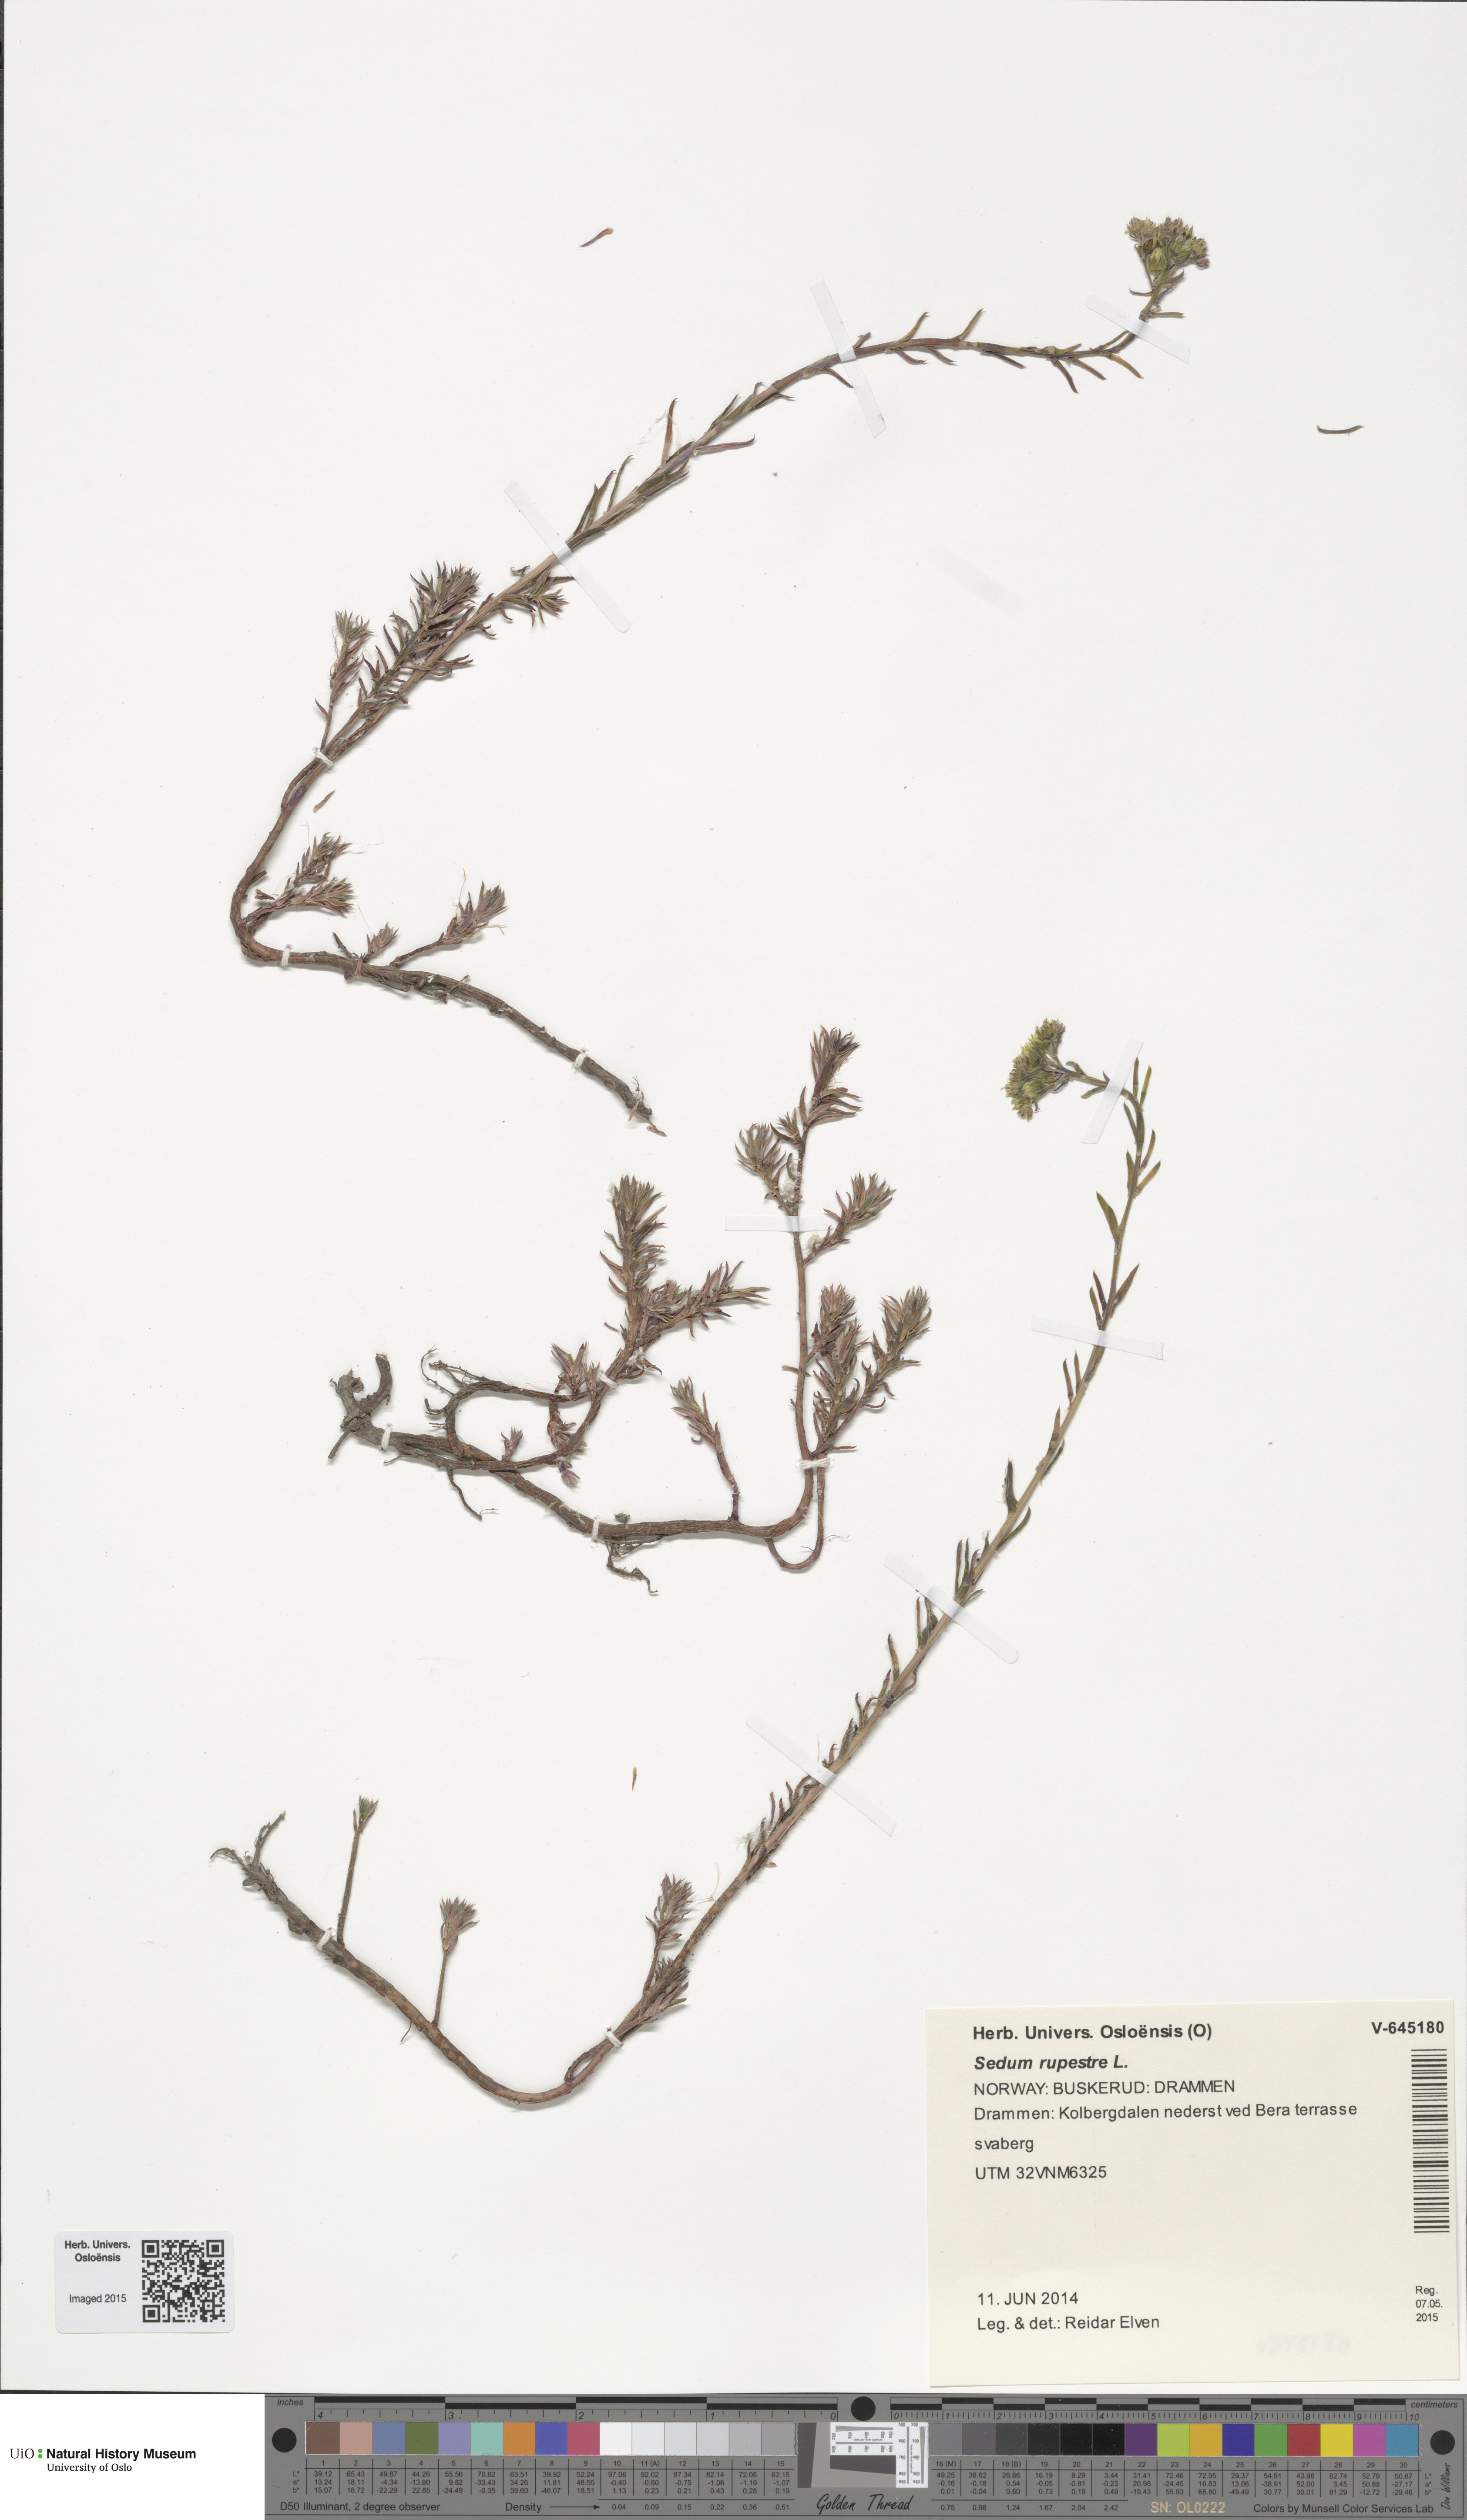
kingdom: Plantae
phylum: Tracheophyta
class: Magnoliopsida
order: Saxifragales
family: Crassulaceae
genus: Petrosedum
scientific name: Petrosedum rupestre
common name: Jenny's stonecrop
